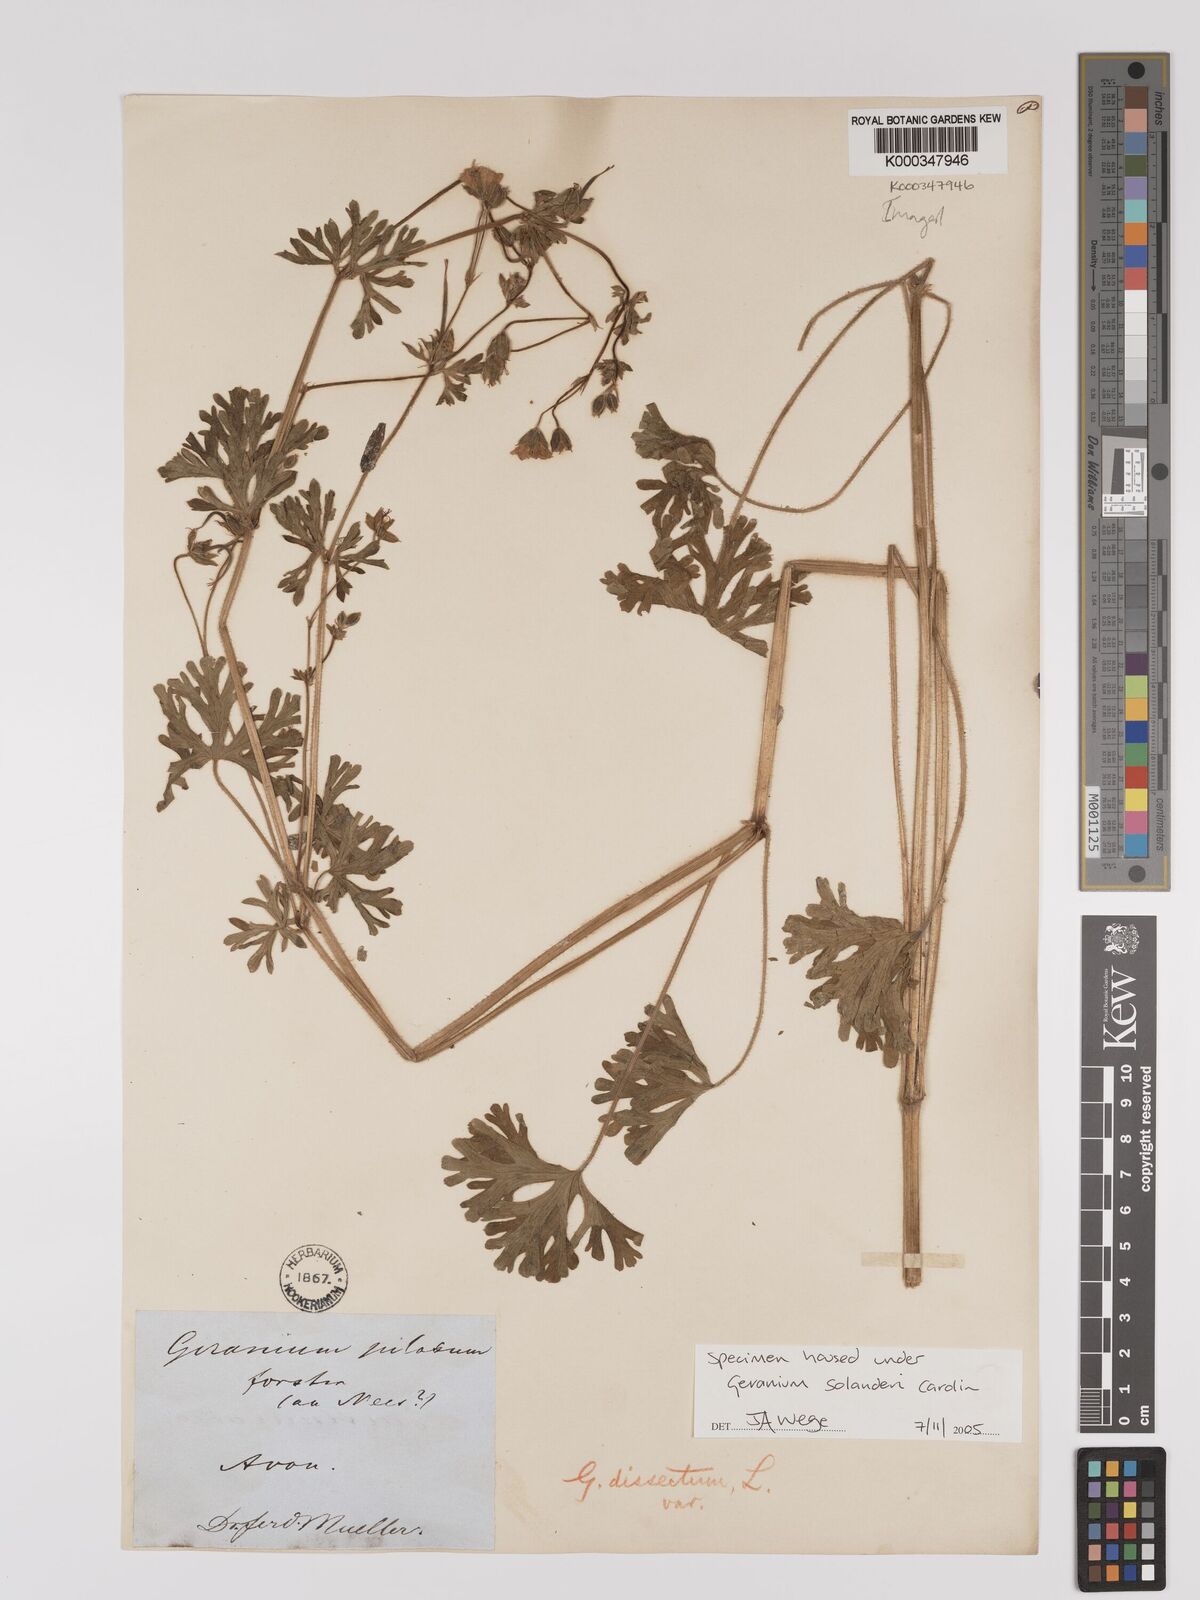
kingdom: Plantae
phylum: Tracheophyta
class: Magnoliopsida
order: Geraniales
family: Geraniaceae
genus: Geranium
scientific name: Geranium solanderi
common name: Solander's geranium
